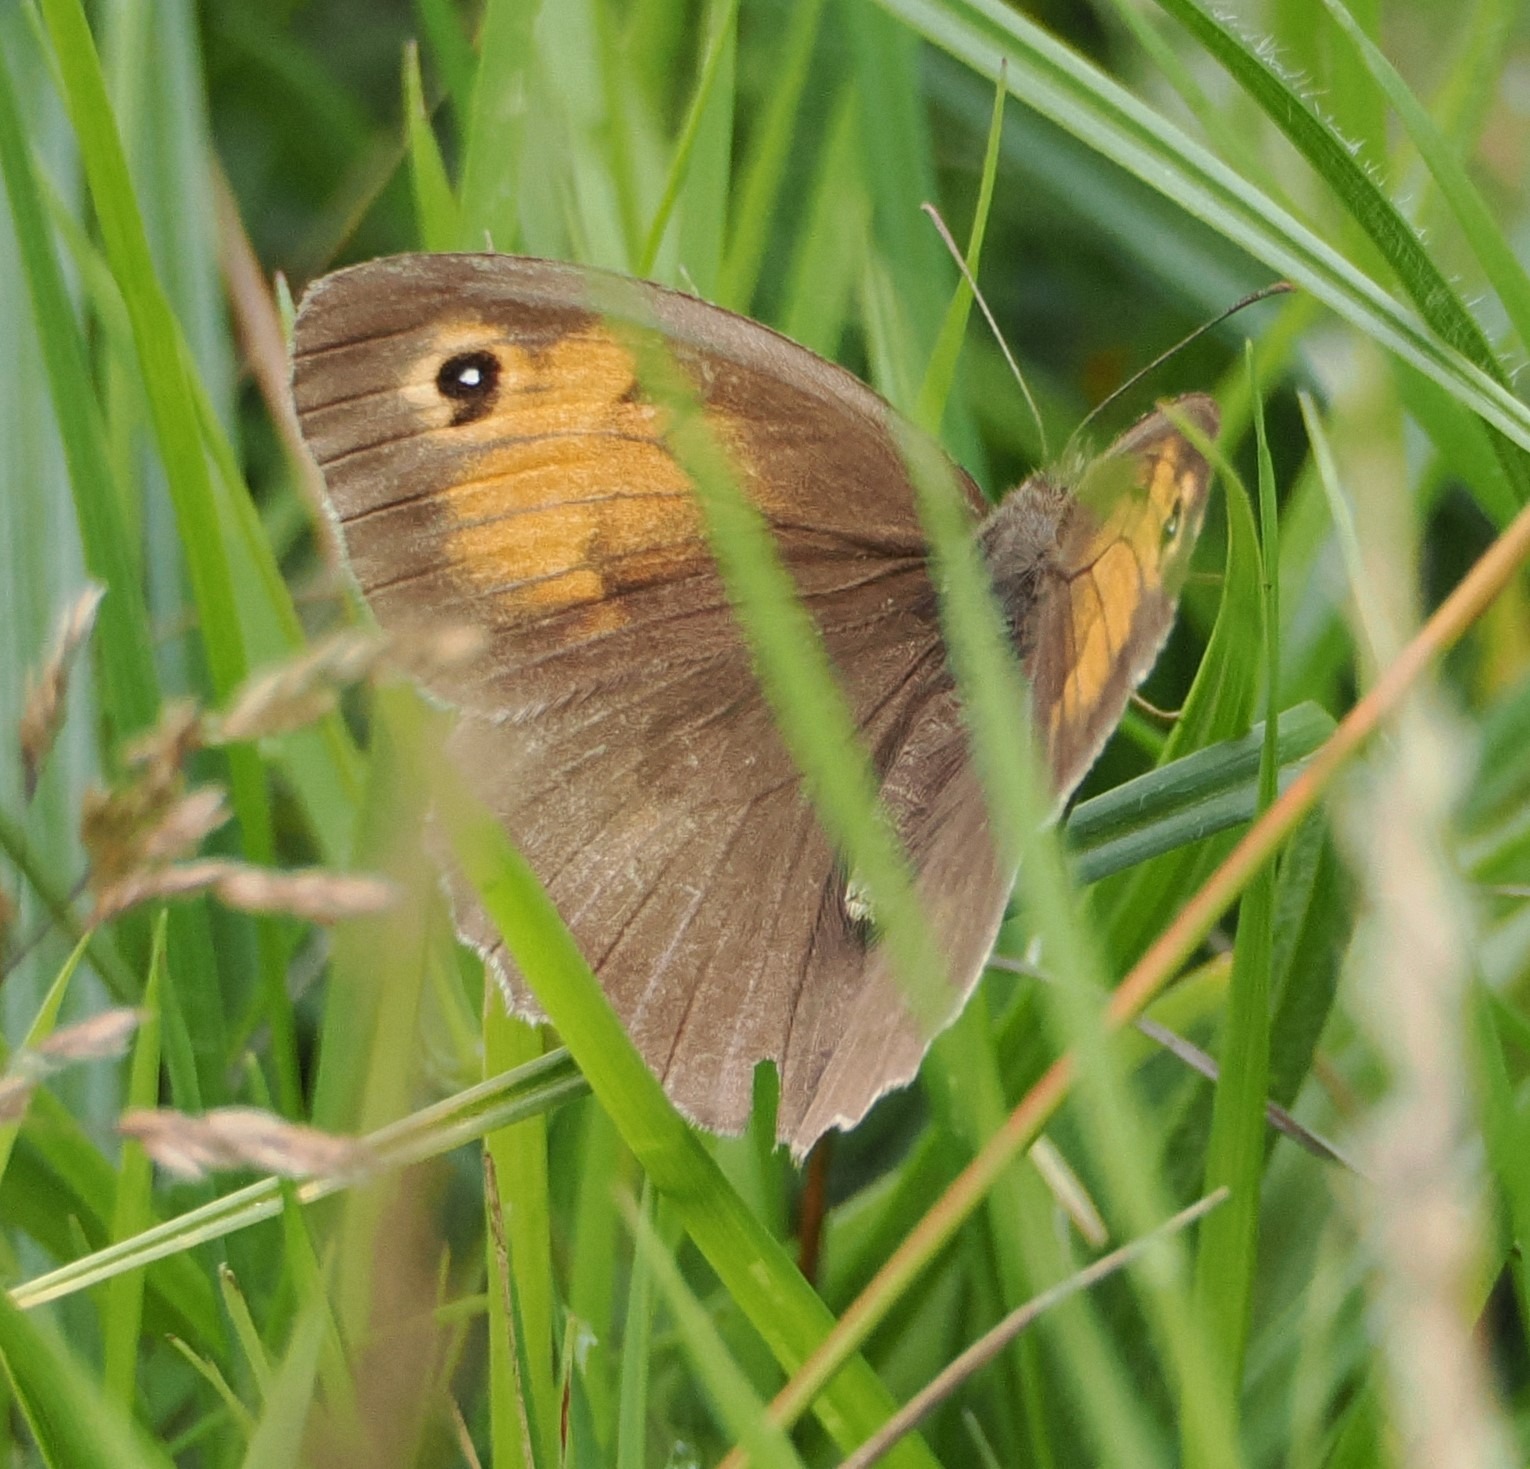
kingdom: Animalia
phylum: Arthropoda
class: Insecta
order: Lepidoptera
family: Nymphalidae
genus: Maniola
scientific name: Maniola jurtina
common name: Græsrandøje
